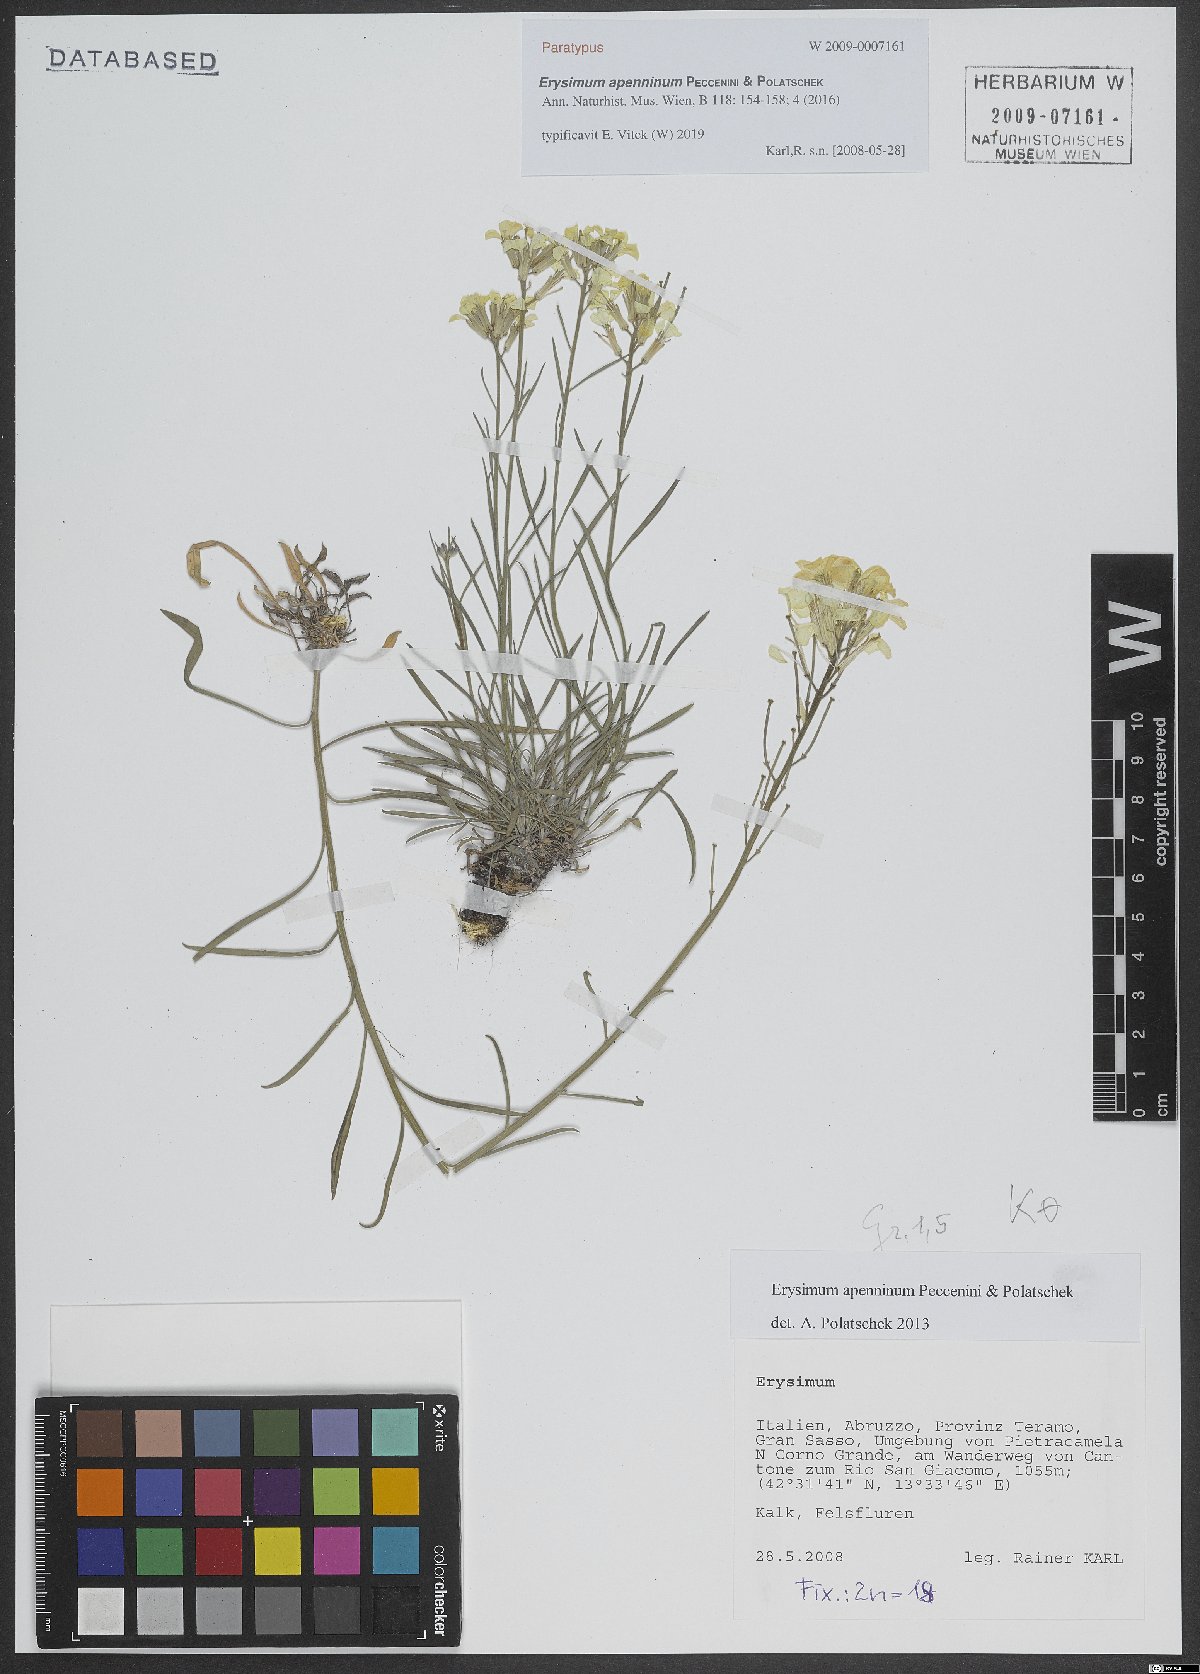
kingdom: Plantae
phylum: Tracheophyta
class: Magnoliopsida
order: Brassicales
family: Brassicaceae
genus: Erysimum
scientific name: Erysimum apenninum
